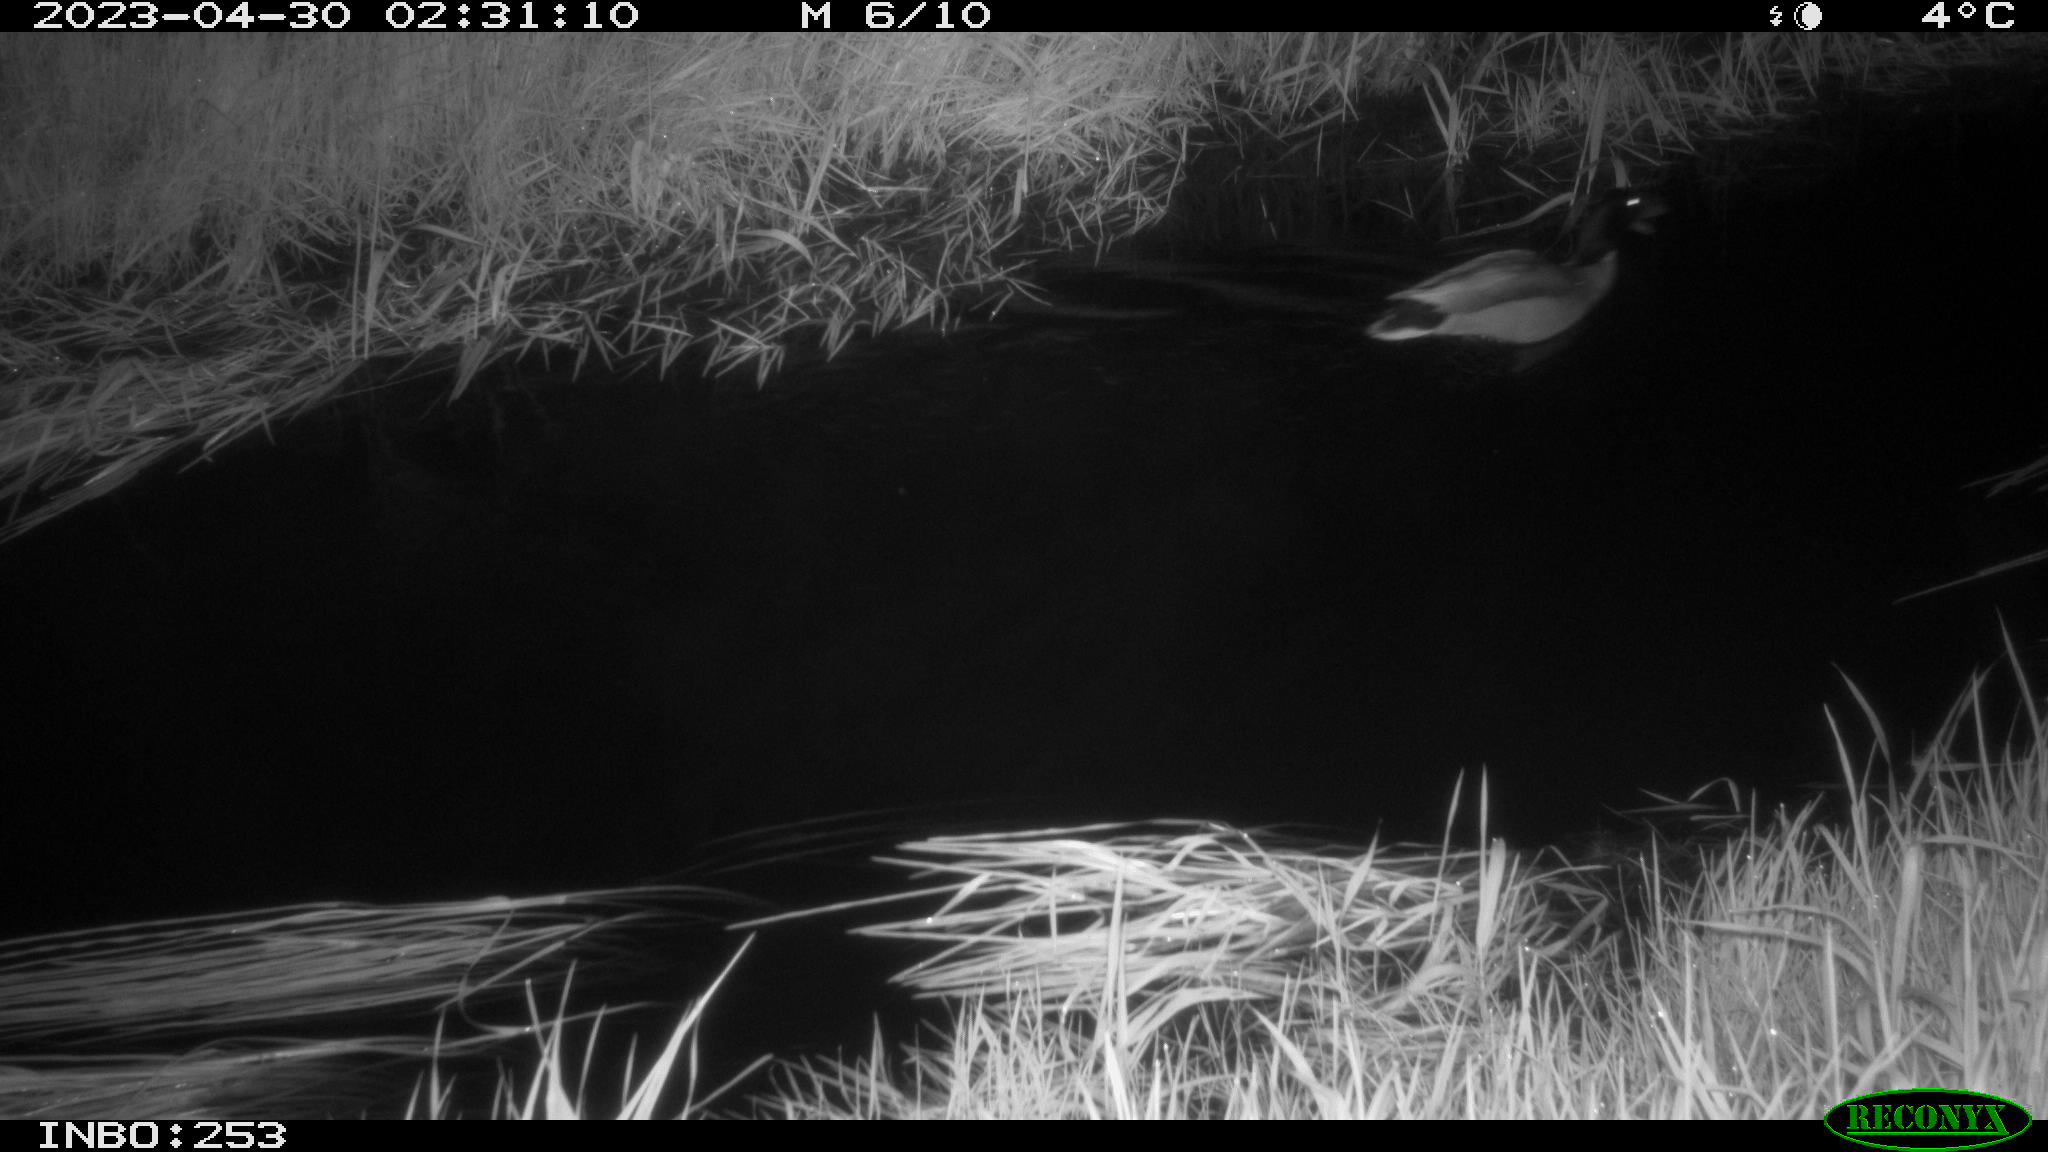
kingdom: Animalia
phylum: Chordata
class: Aves
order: Anseriformes
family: Anatidae
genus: Anas
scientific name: Anas
